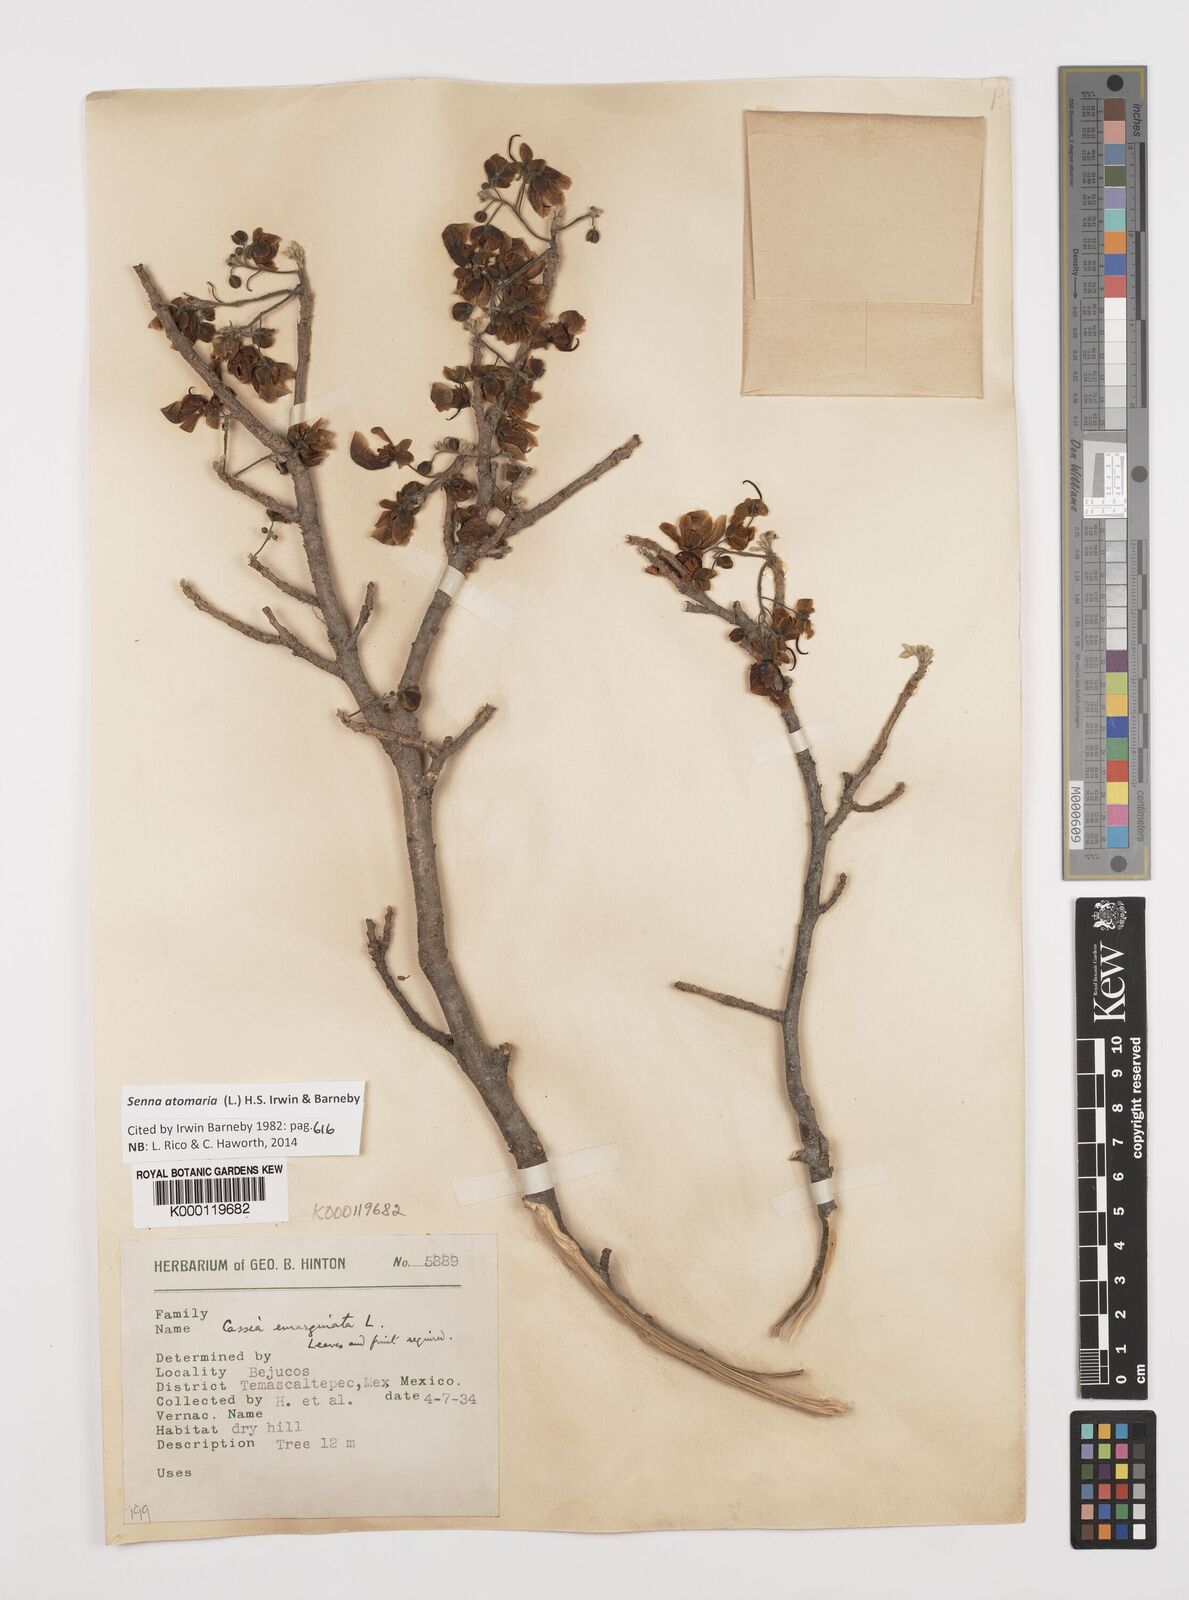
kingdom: Plantae
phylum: Tracheophyta
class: Magnoliopsida
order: Fabales
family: Fabaceae
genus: Senna
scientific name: Senna atomaria
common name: Flor de san jose
